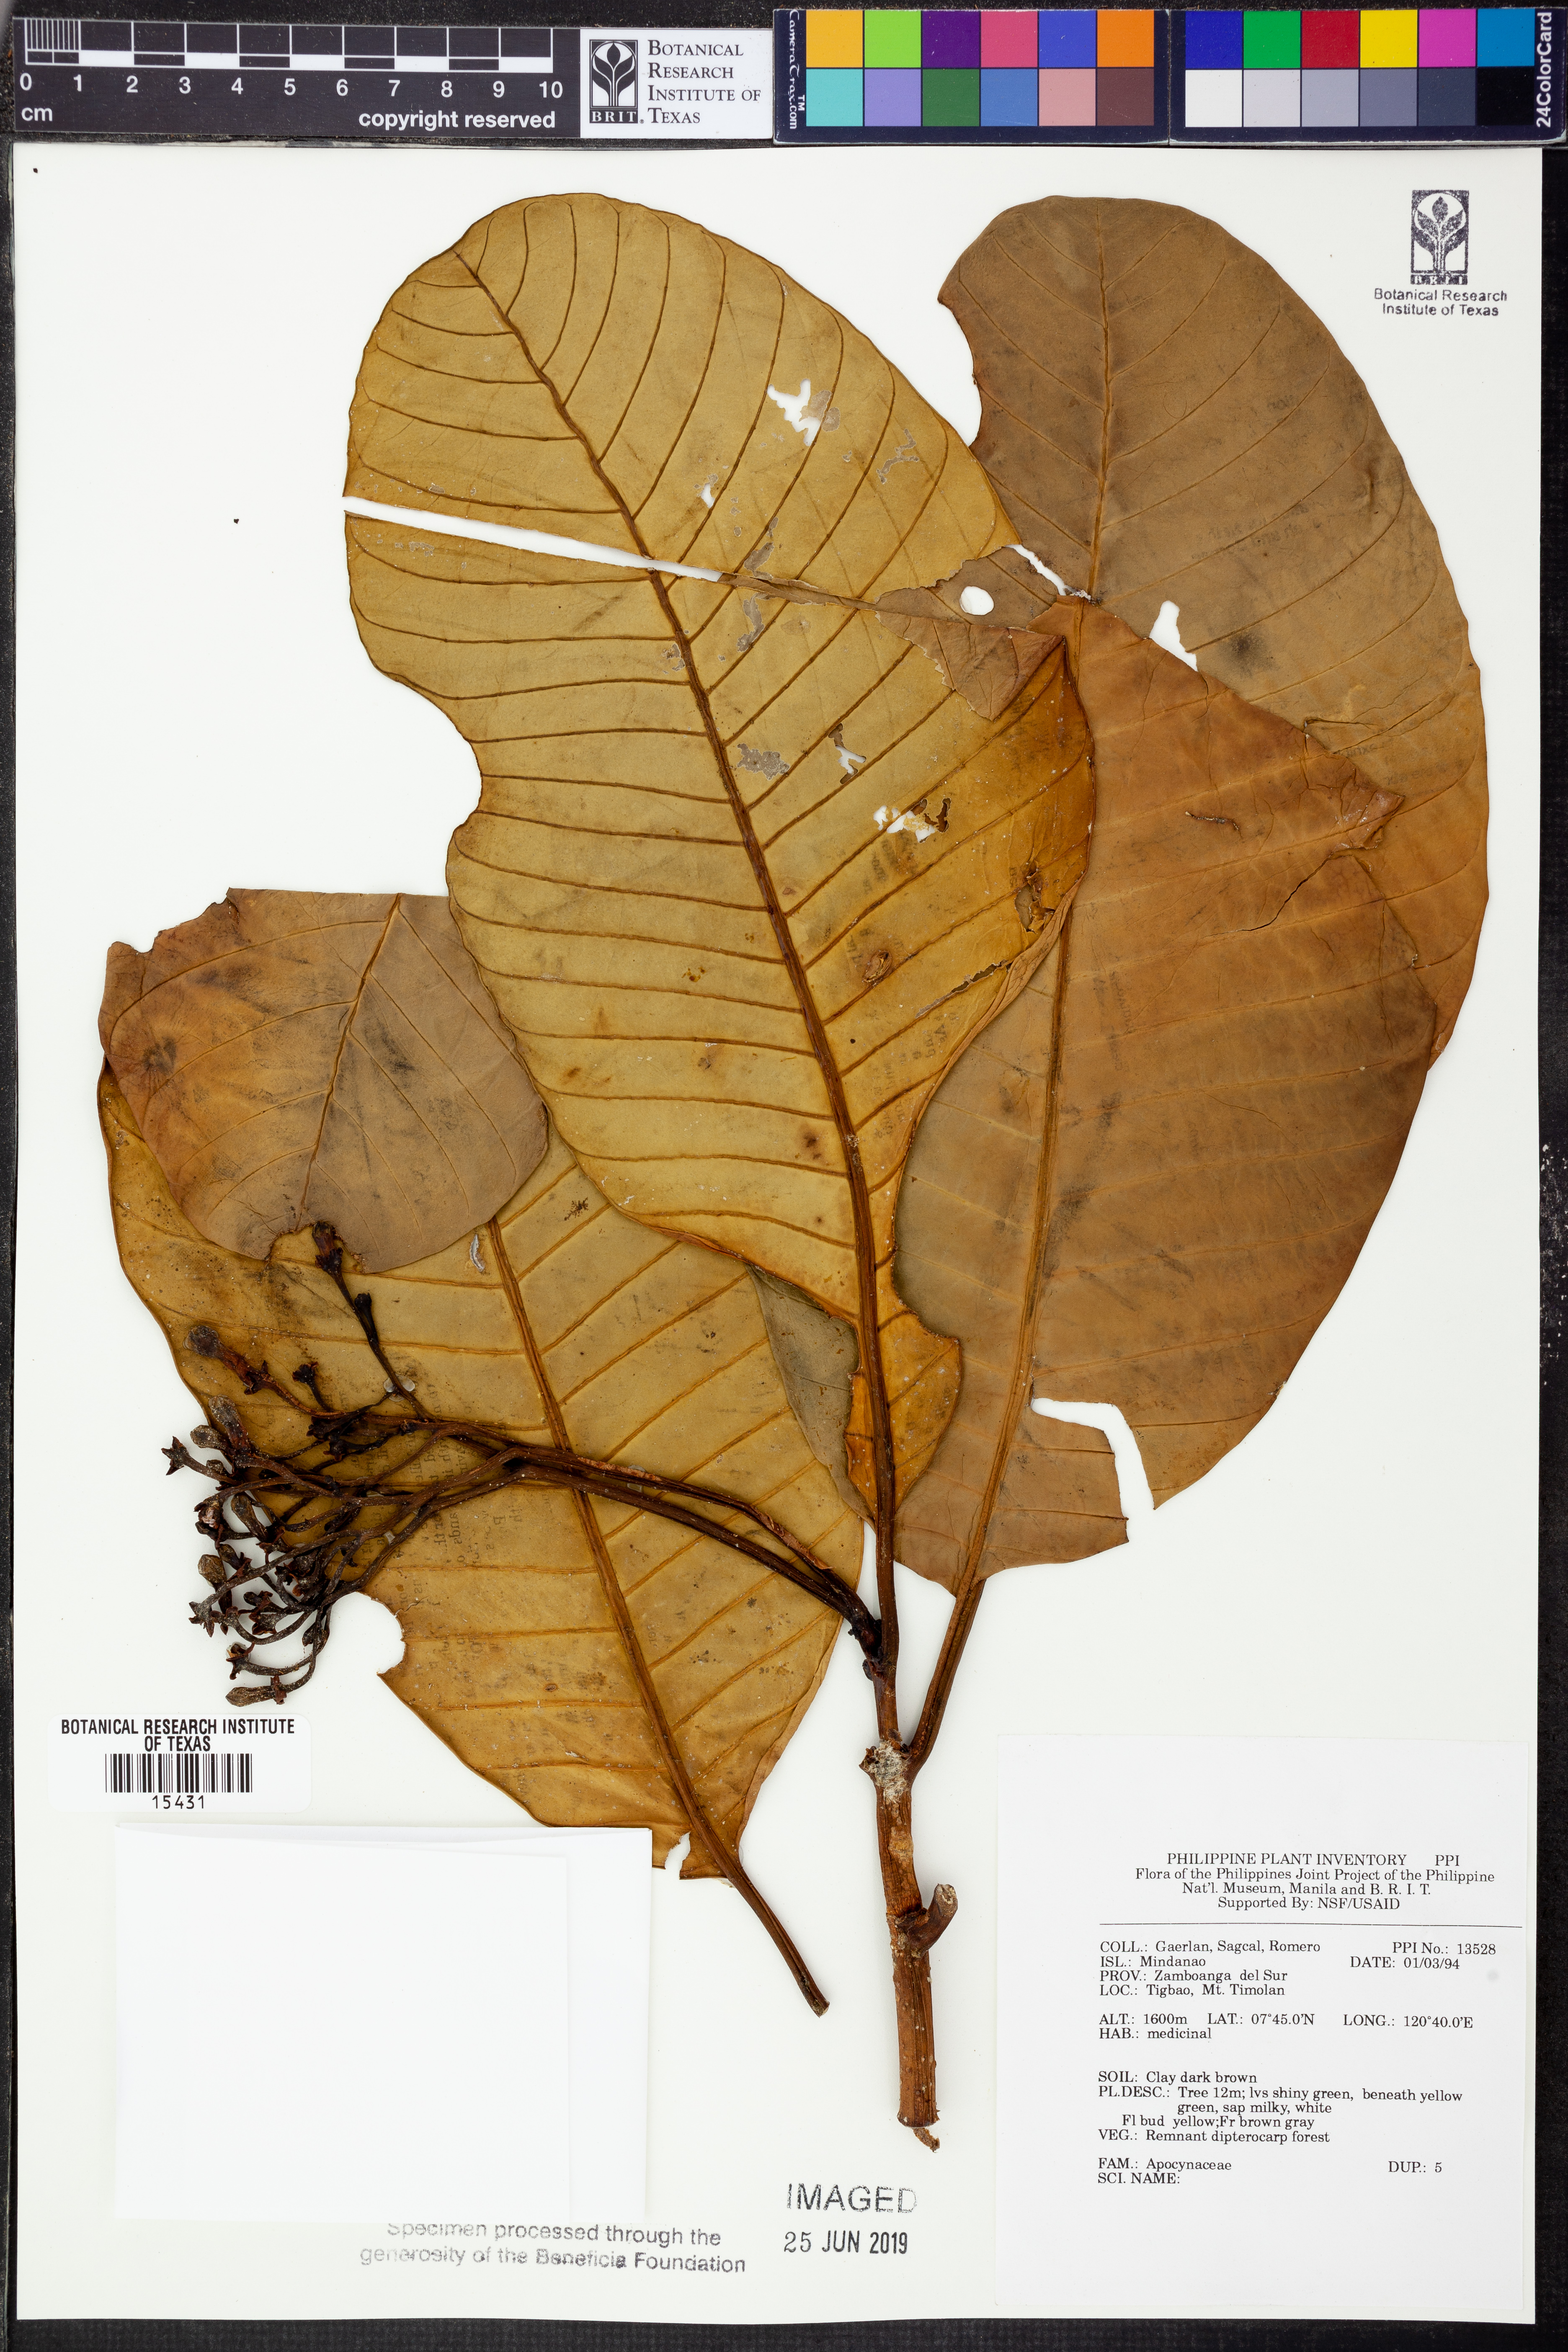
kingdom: Plantae
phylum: Tracheophyta
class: Magnoliopsida
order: Gentianales
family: Apocynaceae
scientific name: Apocynaceae
